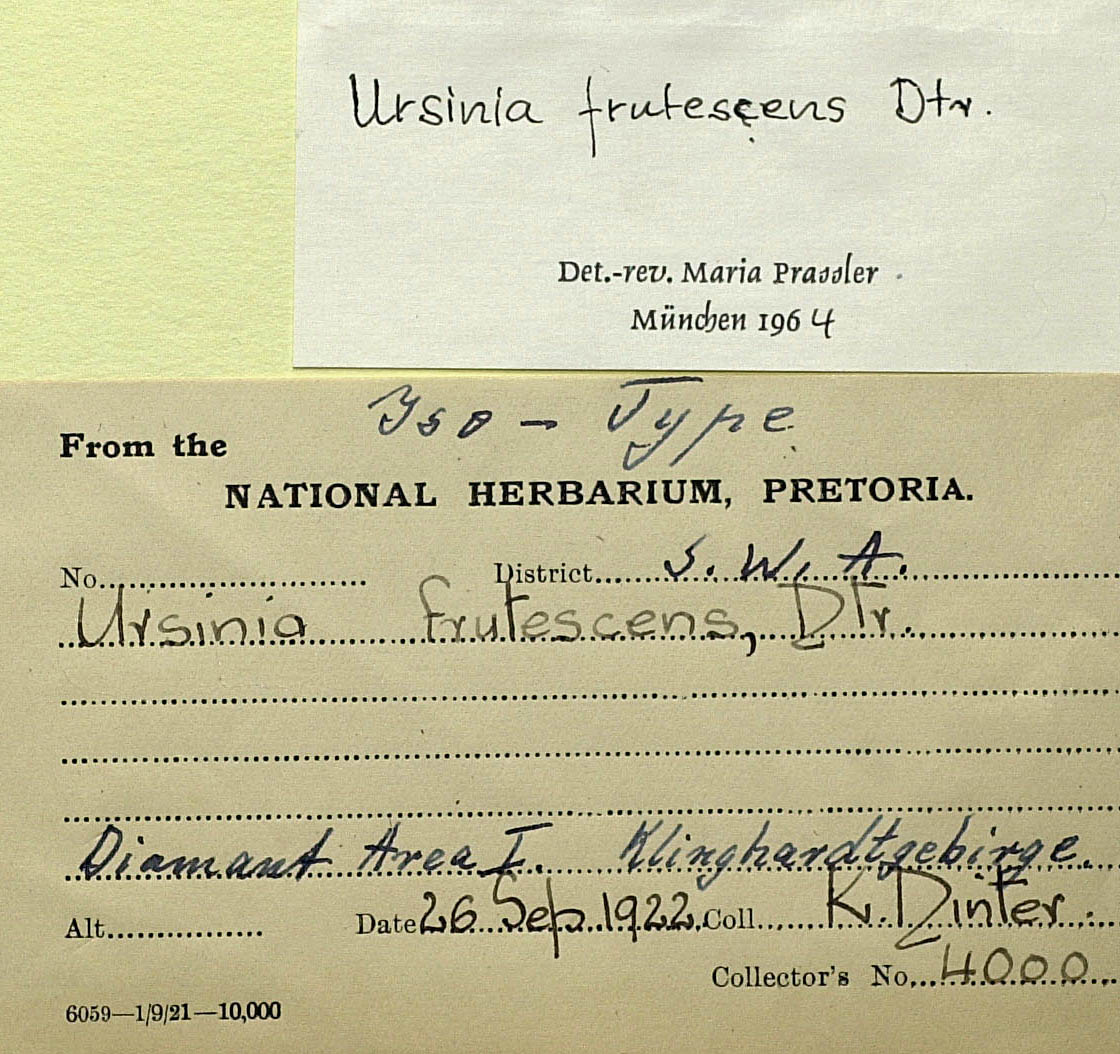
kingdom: Plantae
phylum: Tracheophyta
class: Magnoliopsida
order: Asterales
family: Asteraceae
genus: Ursinia
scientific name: Ursinia frutescens
